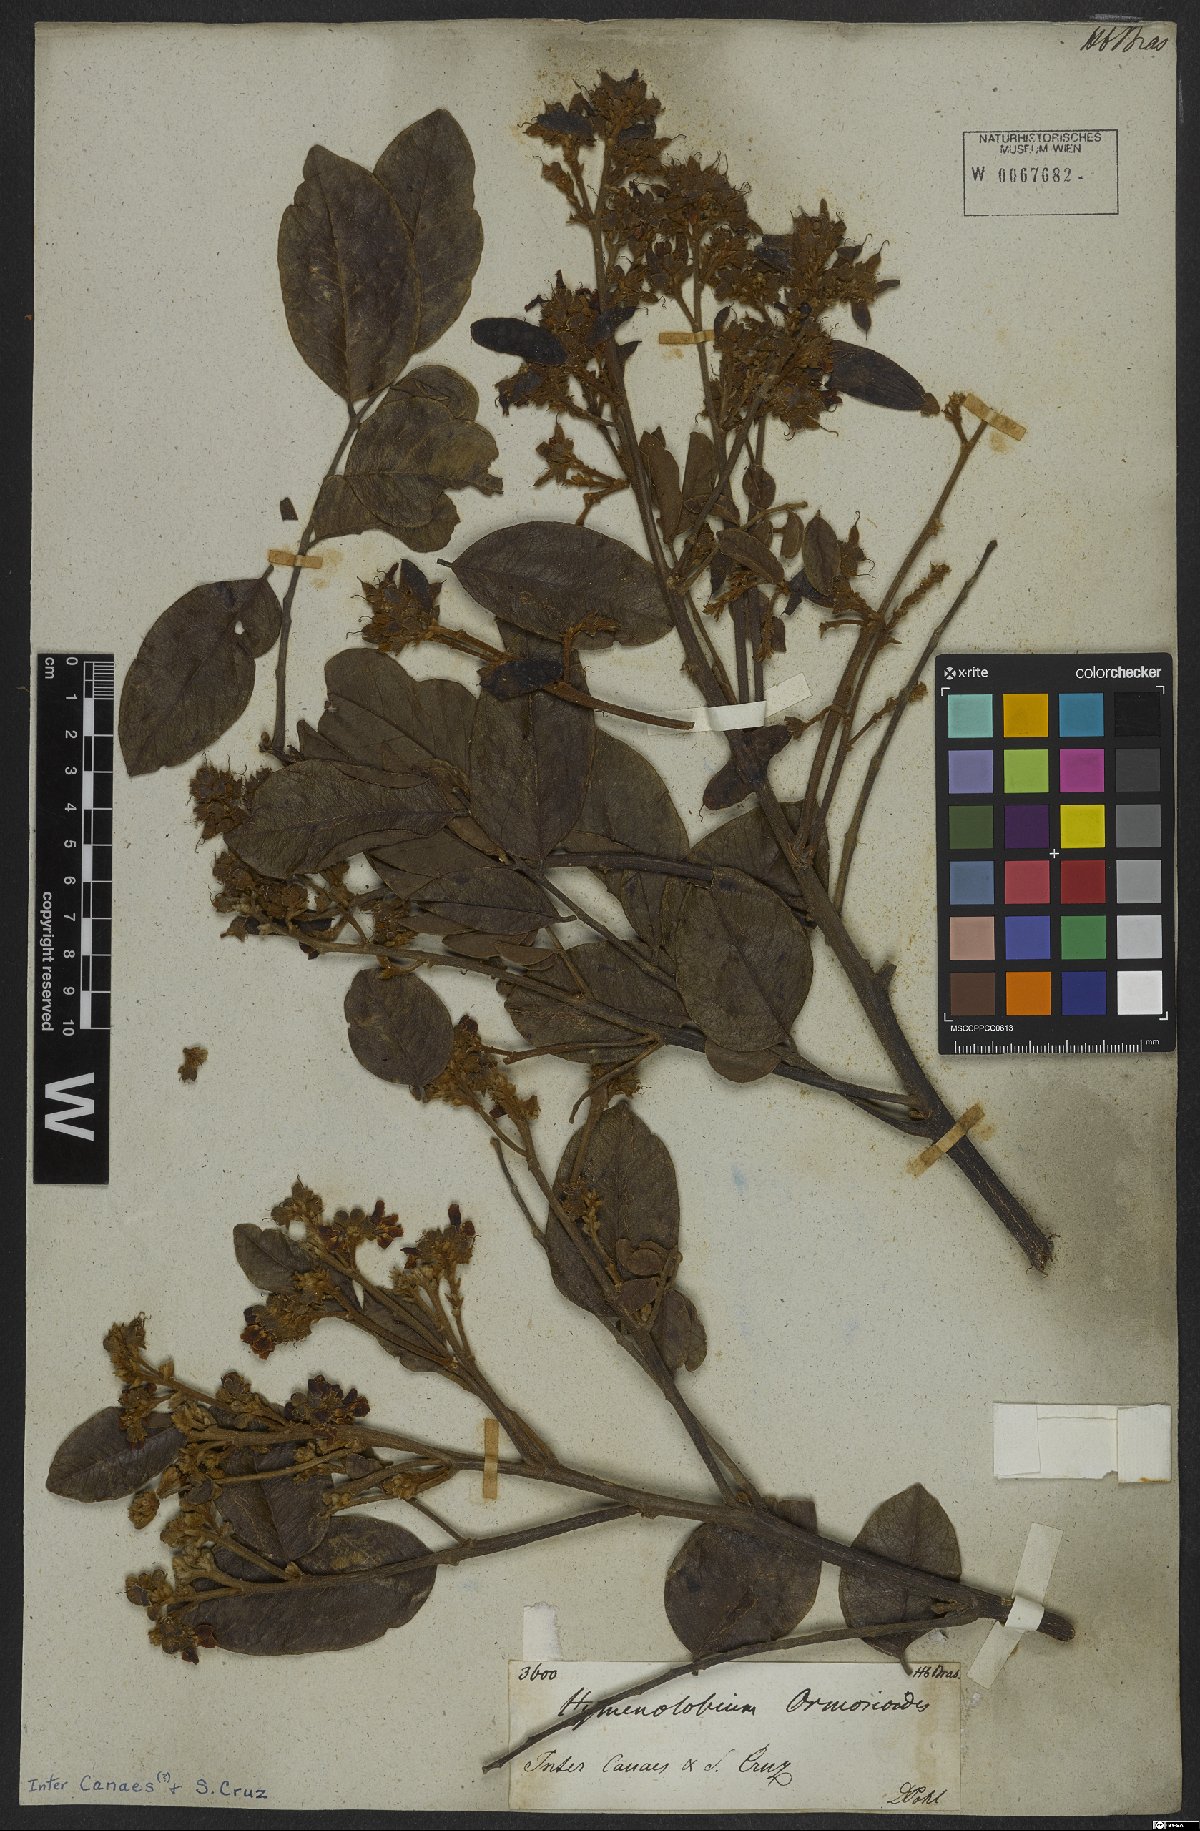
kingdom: Plantae
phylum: Tracheophyta
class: Magnoliopsida
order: Fabales
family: Fabaceae
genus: Diplotropis
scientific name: Diplotropis ferruginea
